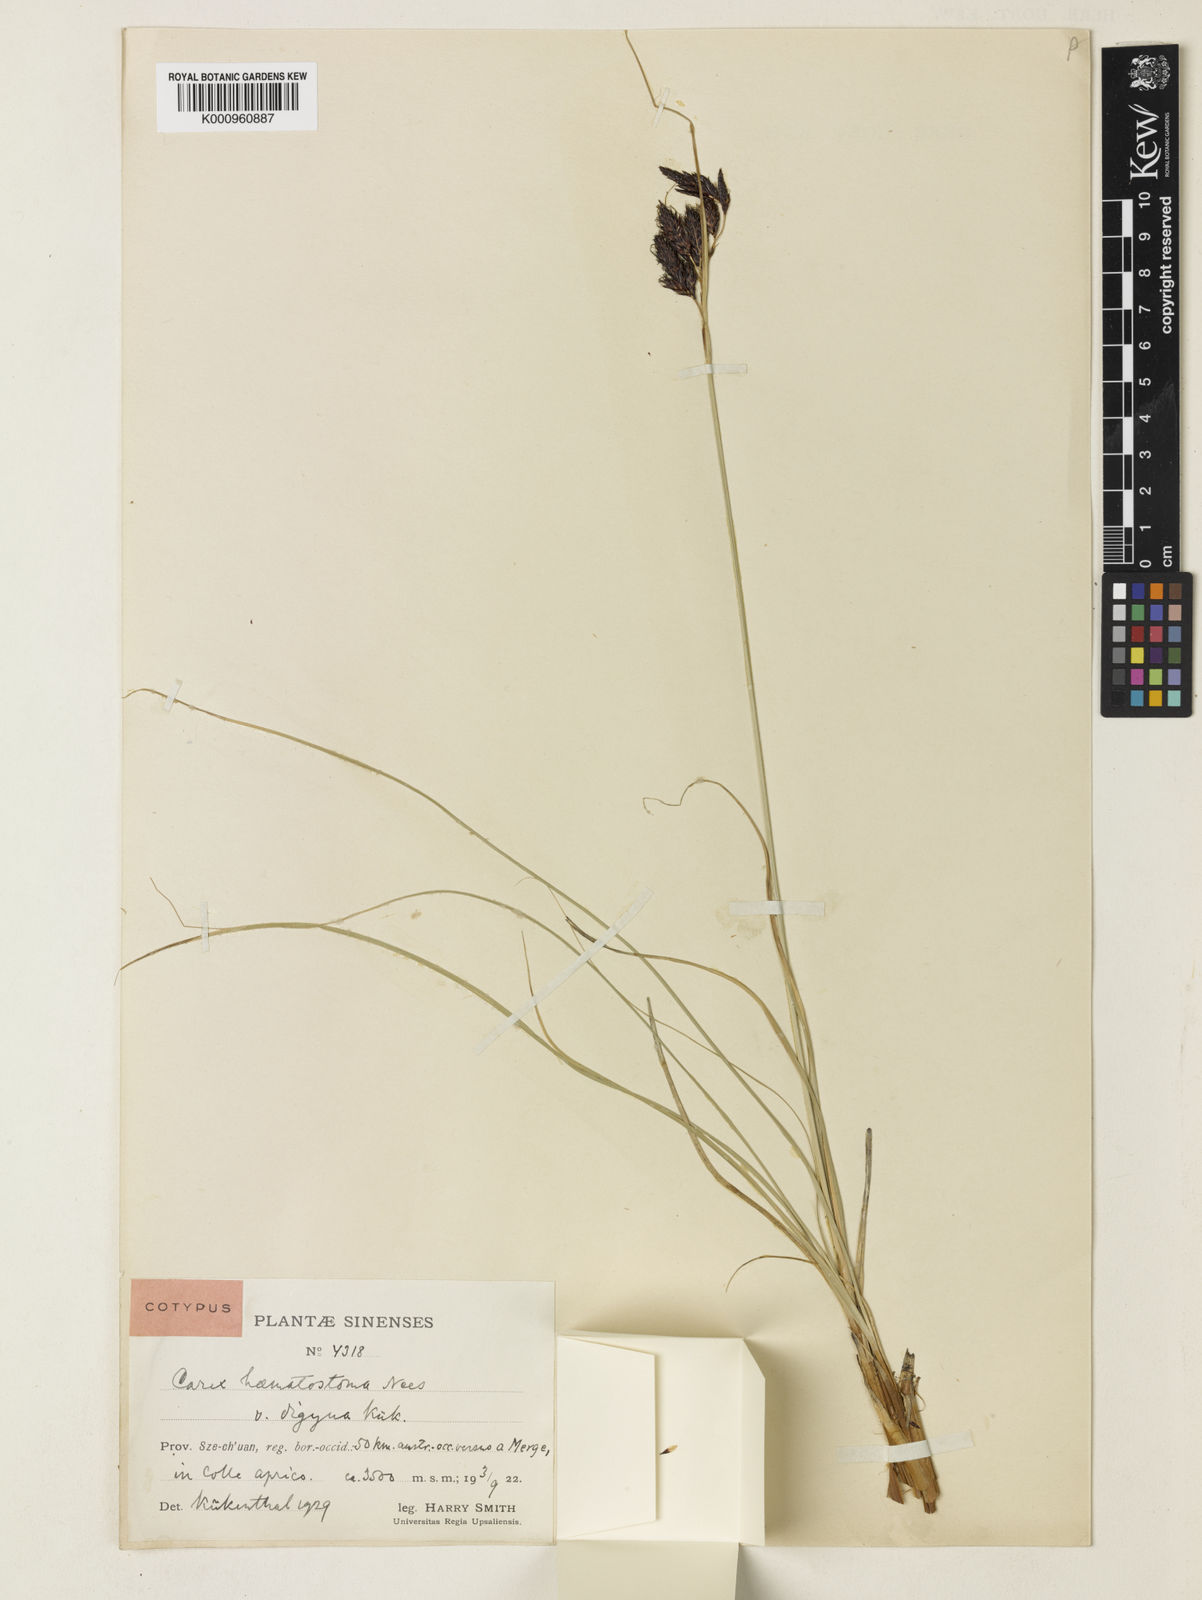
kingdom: Plantae
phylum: Tracheophyta
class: Liliopsida
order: Poales
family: Cyperaceae
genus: Carex
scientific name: Carex haematostoma
